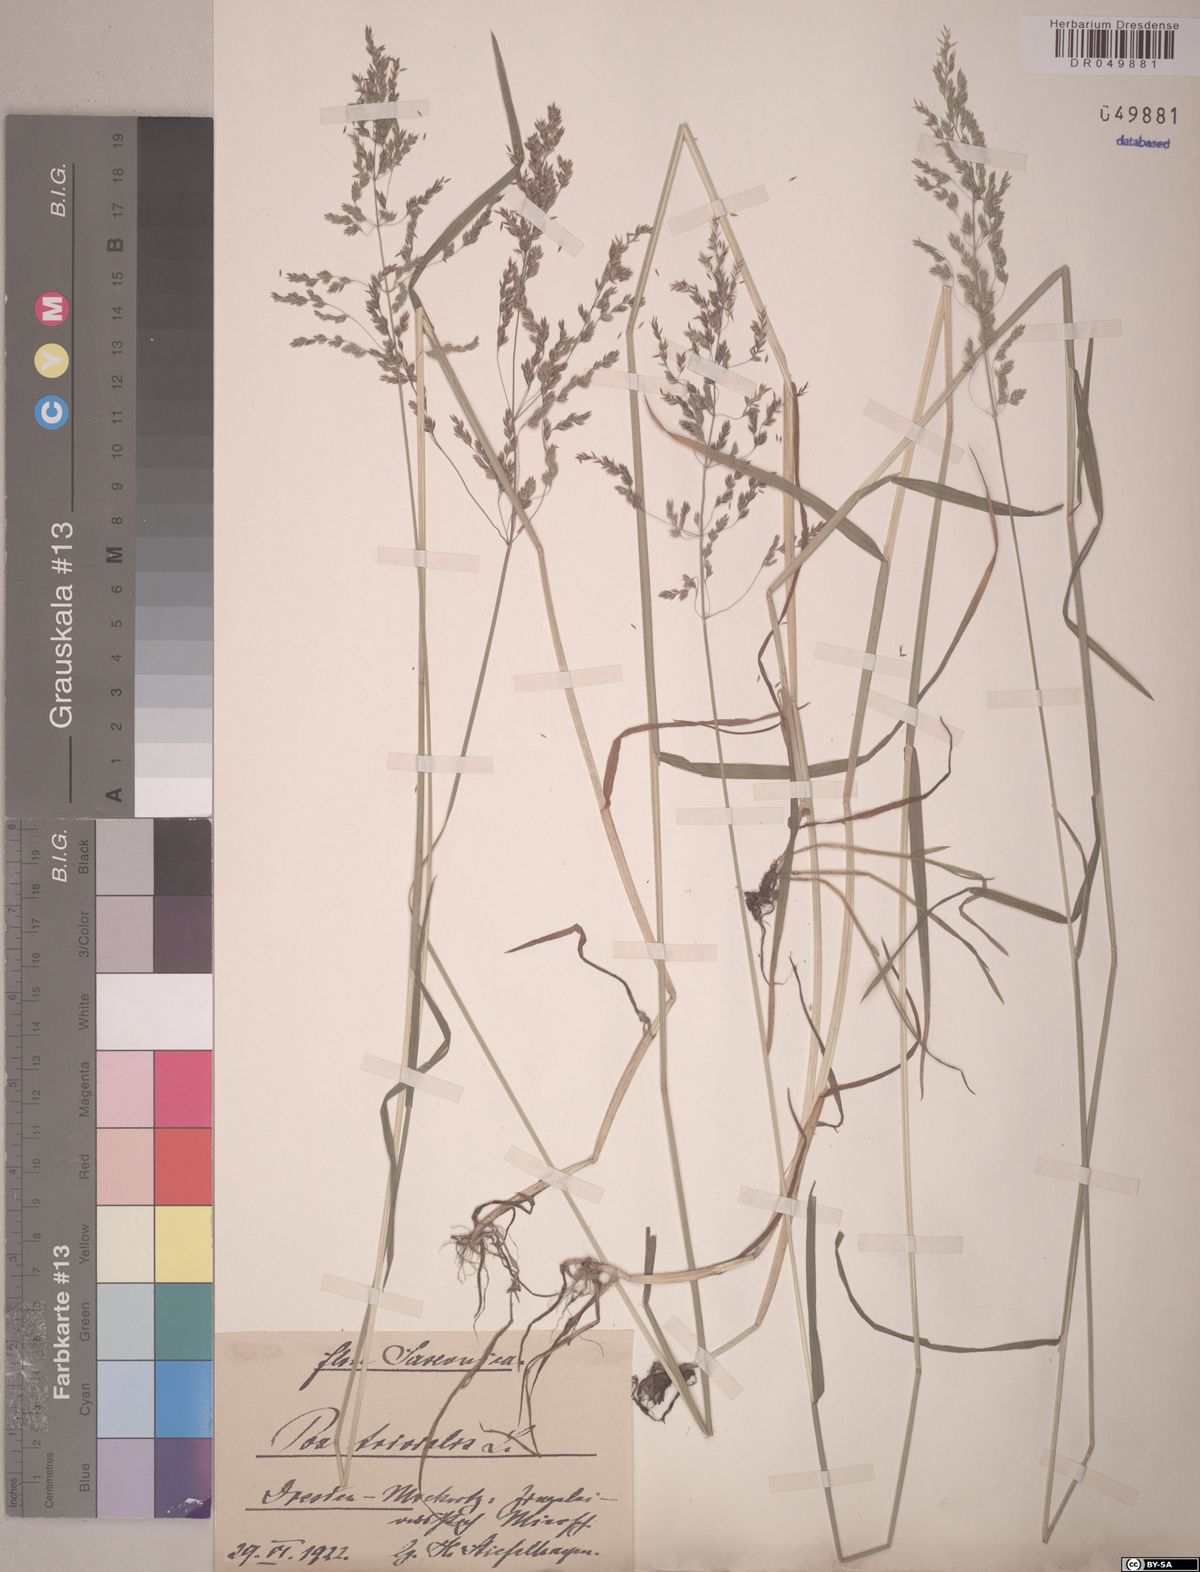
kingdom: Plantae
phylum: Tracheophyta
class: Liliopsida
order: Poales
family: Poaceae
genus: Poa
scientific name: Poa trivialis
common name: Rough bluegrass
